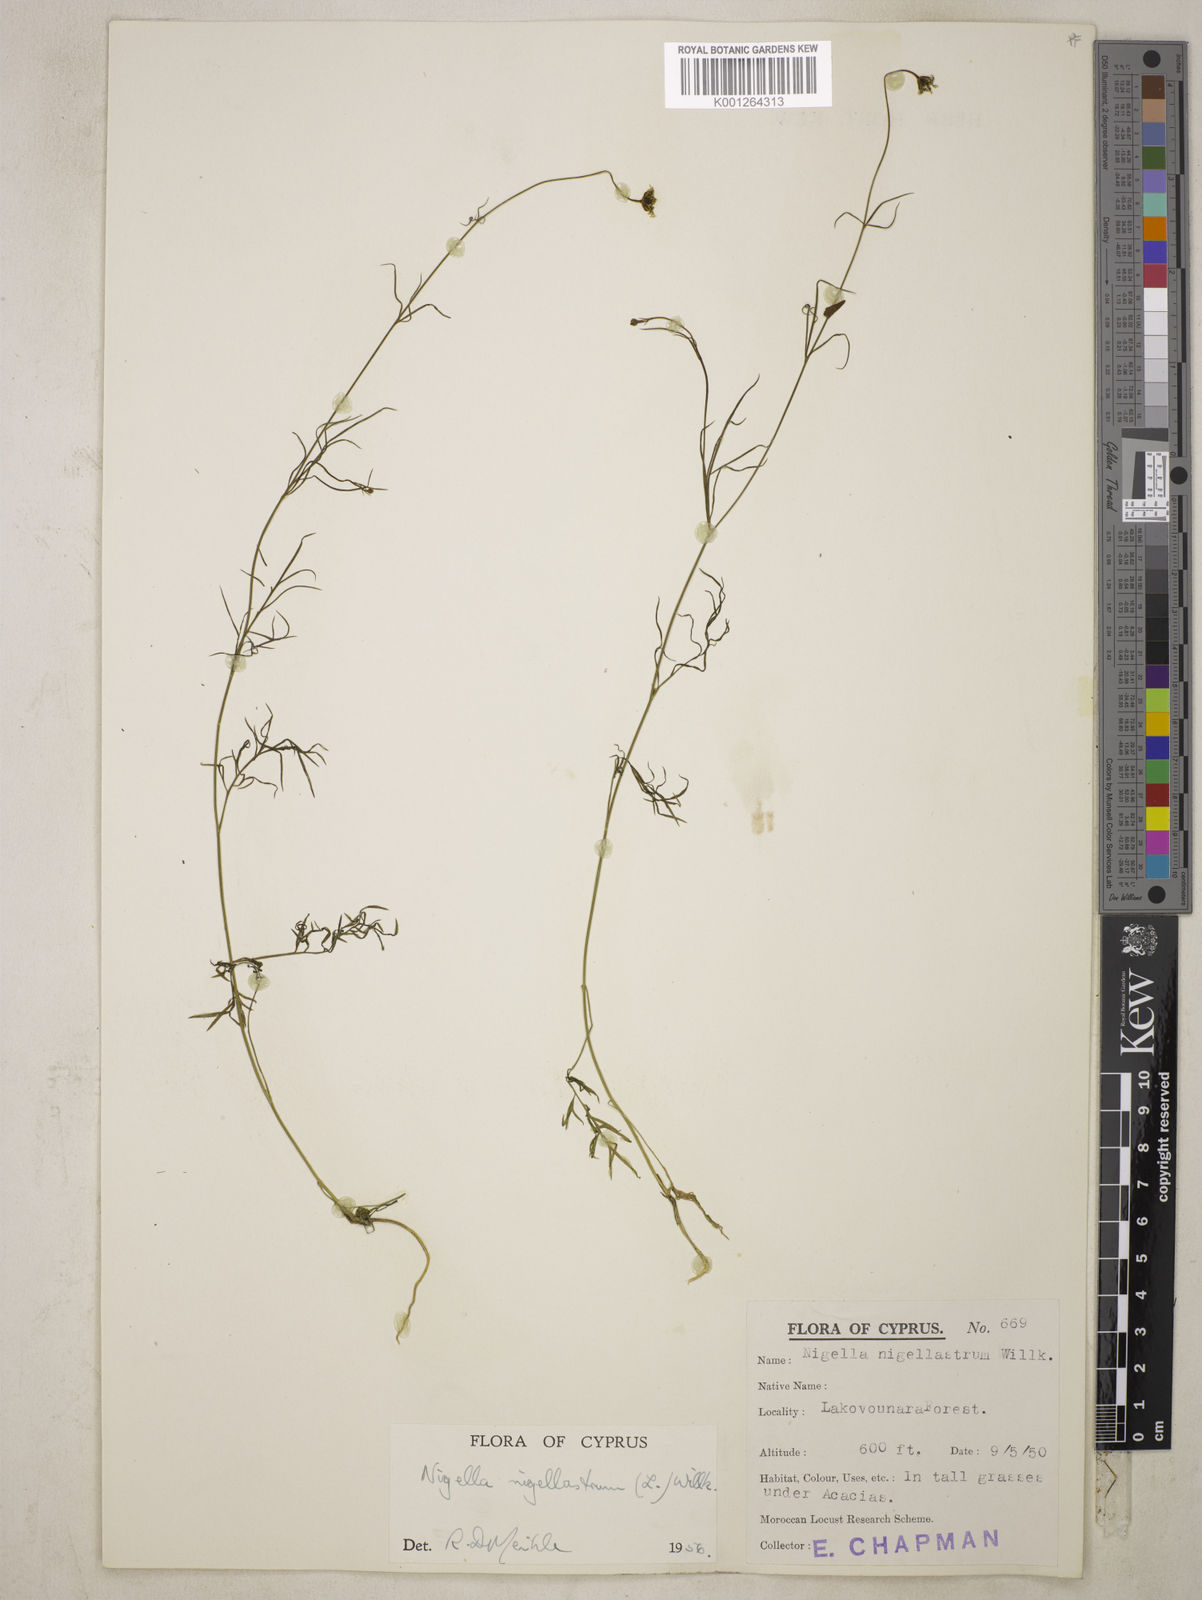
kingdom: Plantae
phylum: Tracheophyta
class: Magnoliopsida
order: Ranunculales
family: Ranunculaceae
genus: Garidella
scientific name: Garidella nigellastrum
